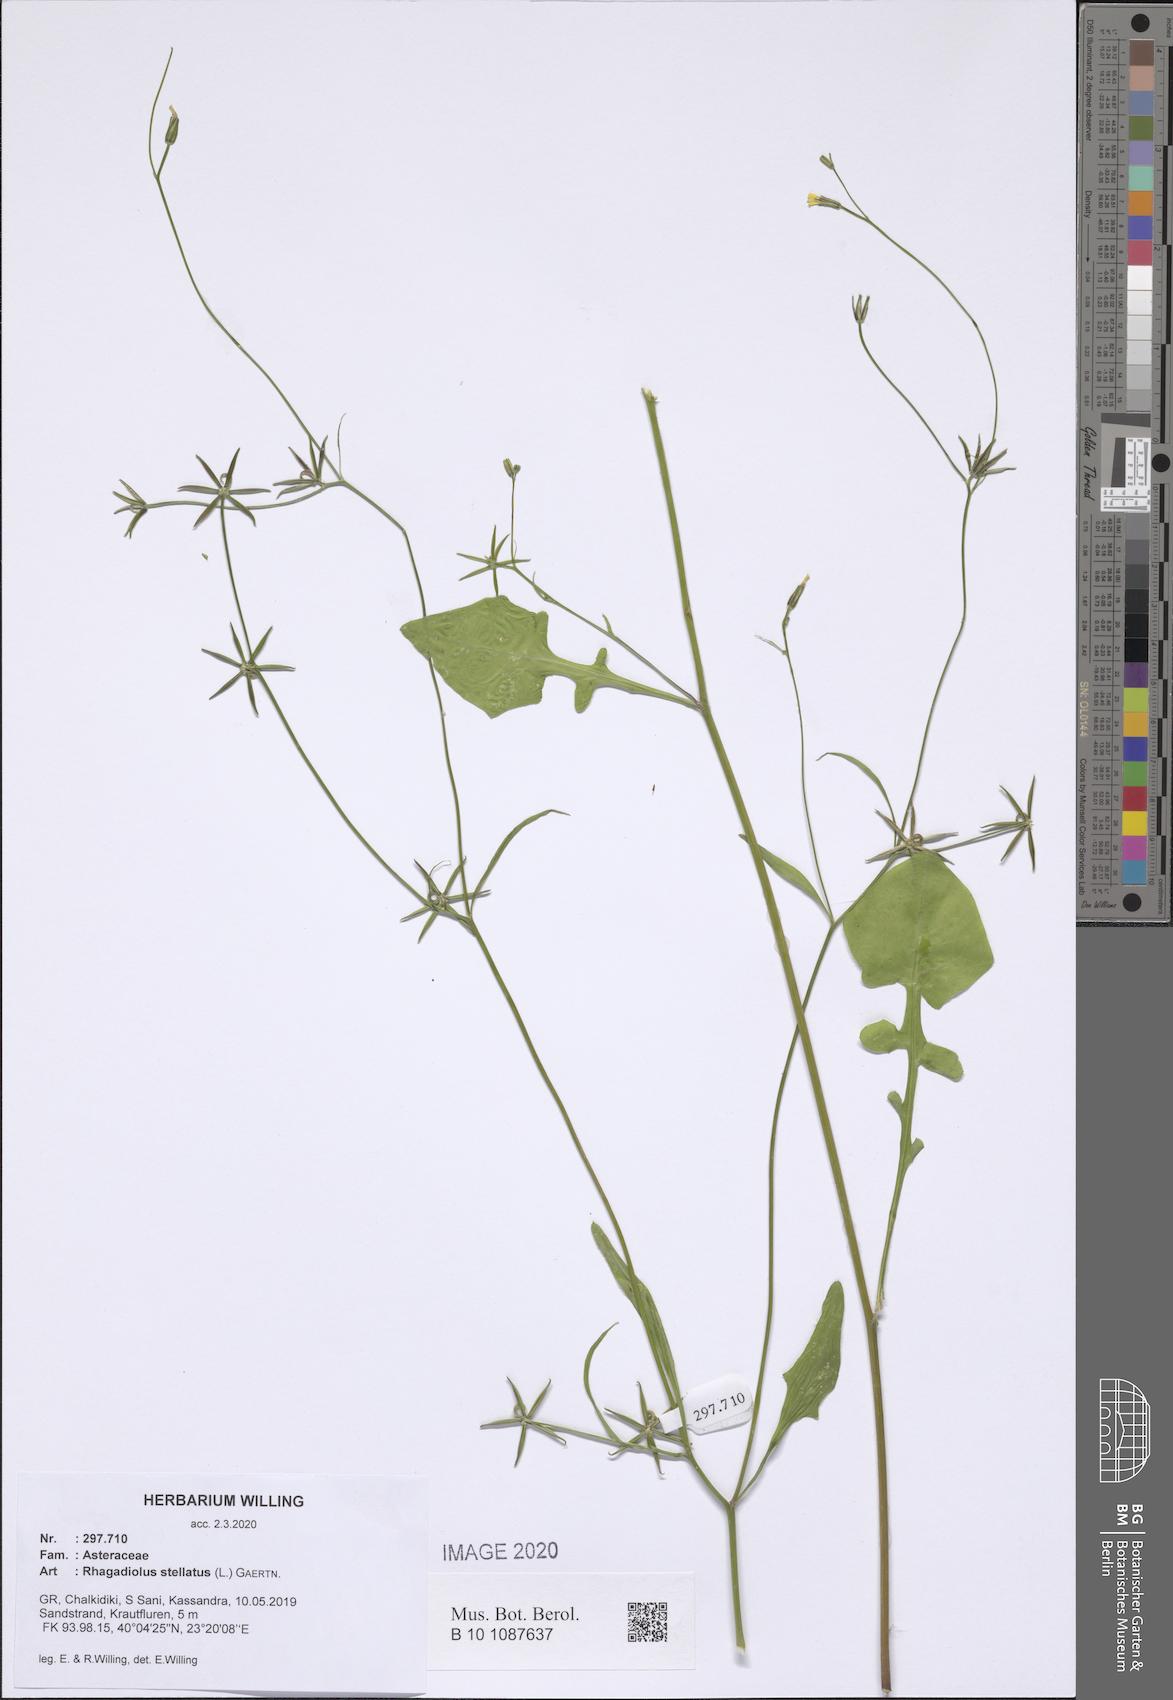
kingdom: Plantae
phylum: Tracheophyta
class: Magnoliopsida
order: Asterales
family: Asteraceae
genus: Rhagadiolus
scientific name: Rhagadiolus stellatus
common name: Star hawkbit
